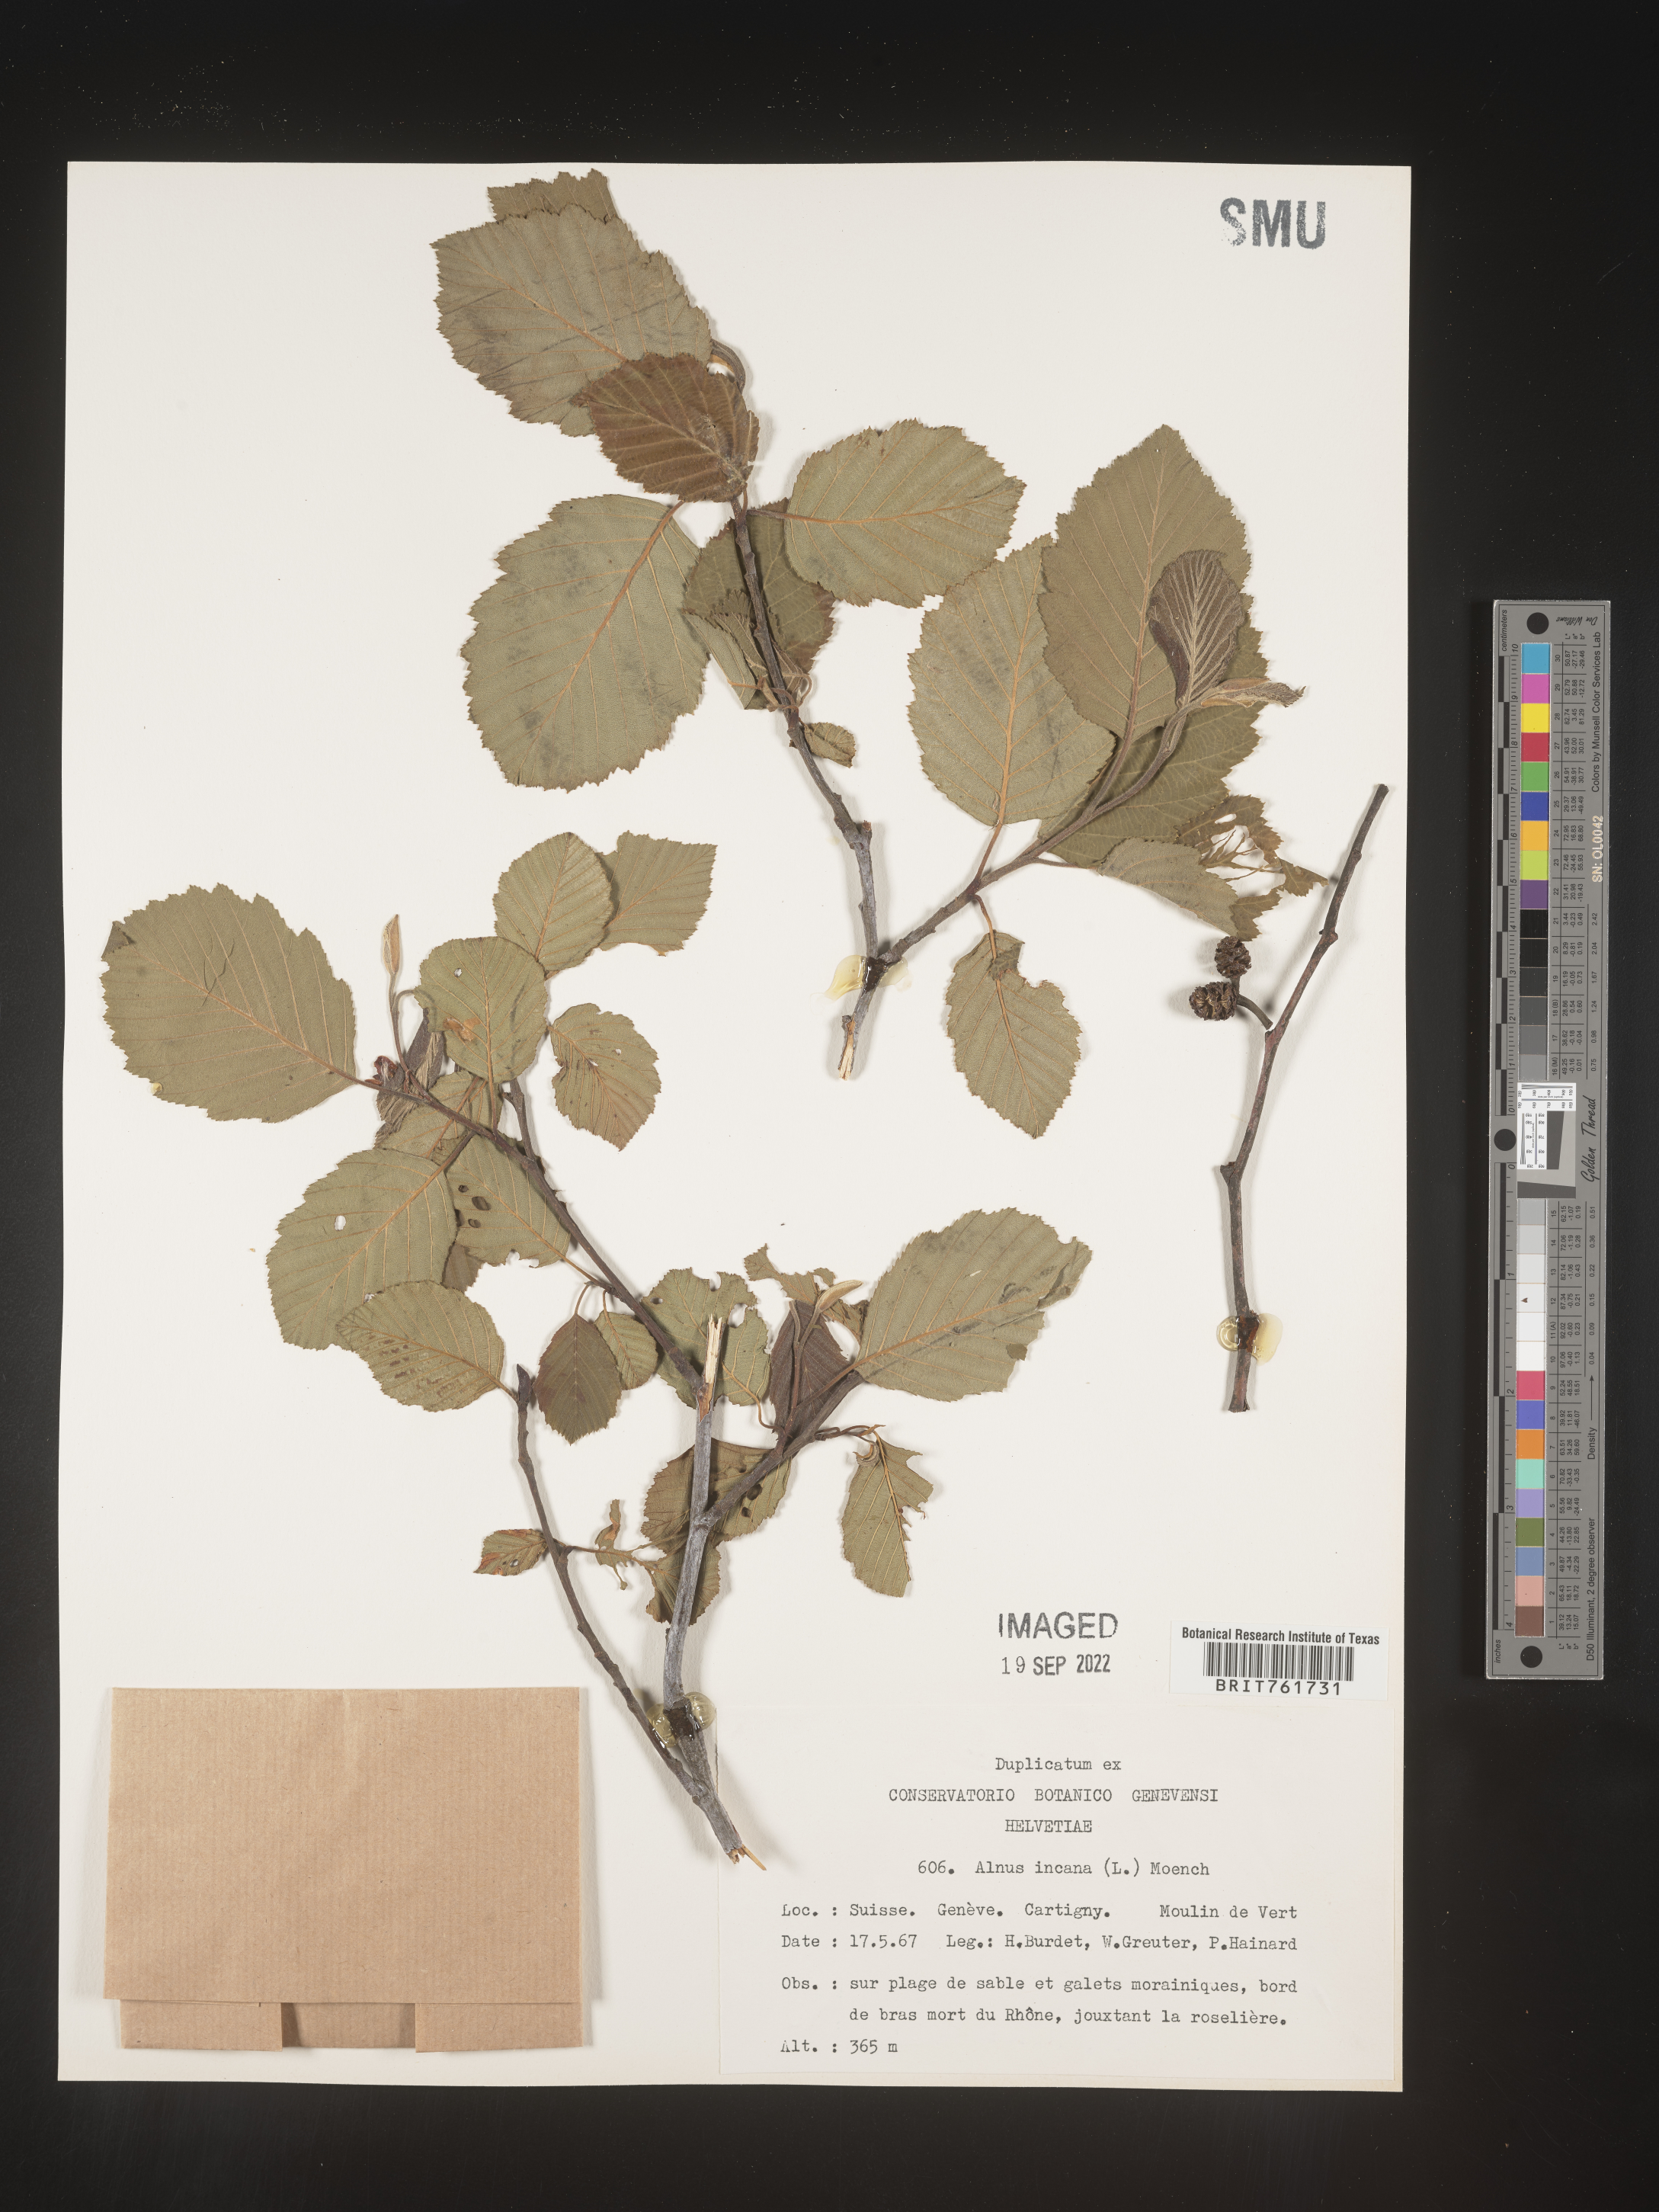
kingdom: Plantae
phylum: Tracheophyta
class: Magnoliopsida
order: Fagales
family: Betulaceae
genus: Alnus
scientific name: Alnus
